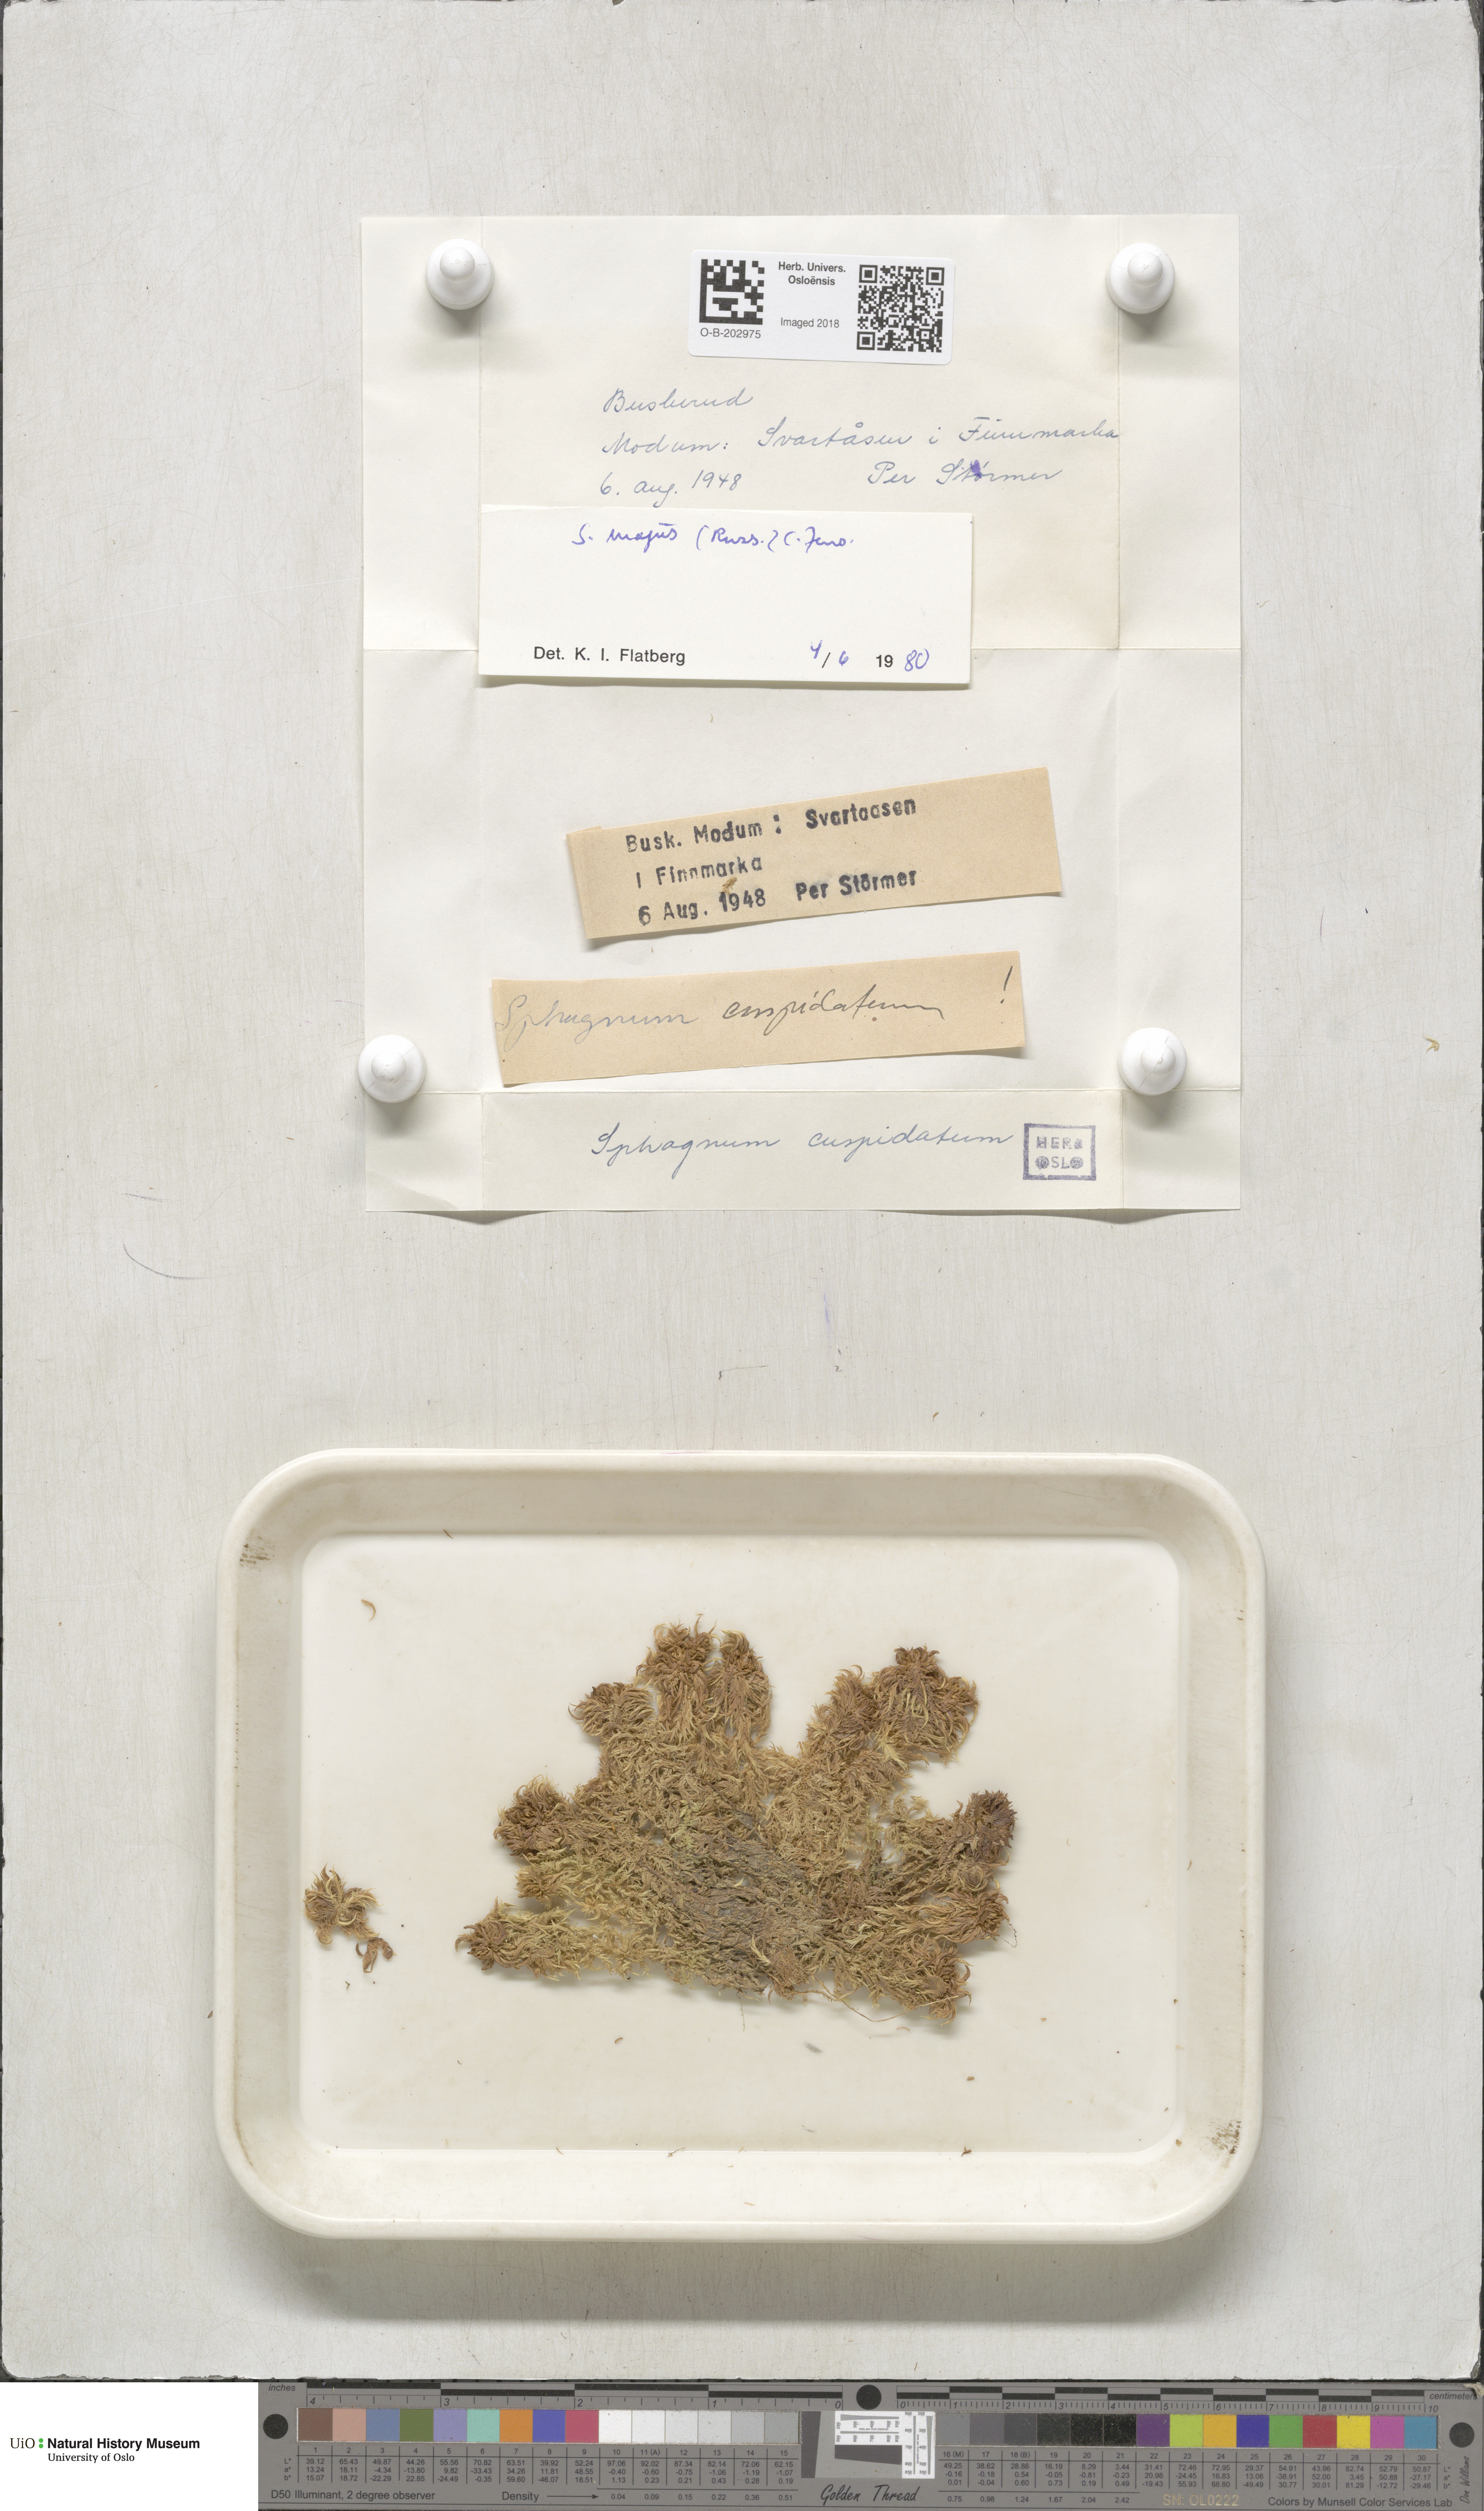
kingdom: Plantae
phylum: Bryophyta
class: Sphagnopsida
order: Sphagnales
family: Sphagnaceae
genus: Sphagnum
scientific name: Sphagnum majus
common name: Olive bog-moss
